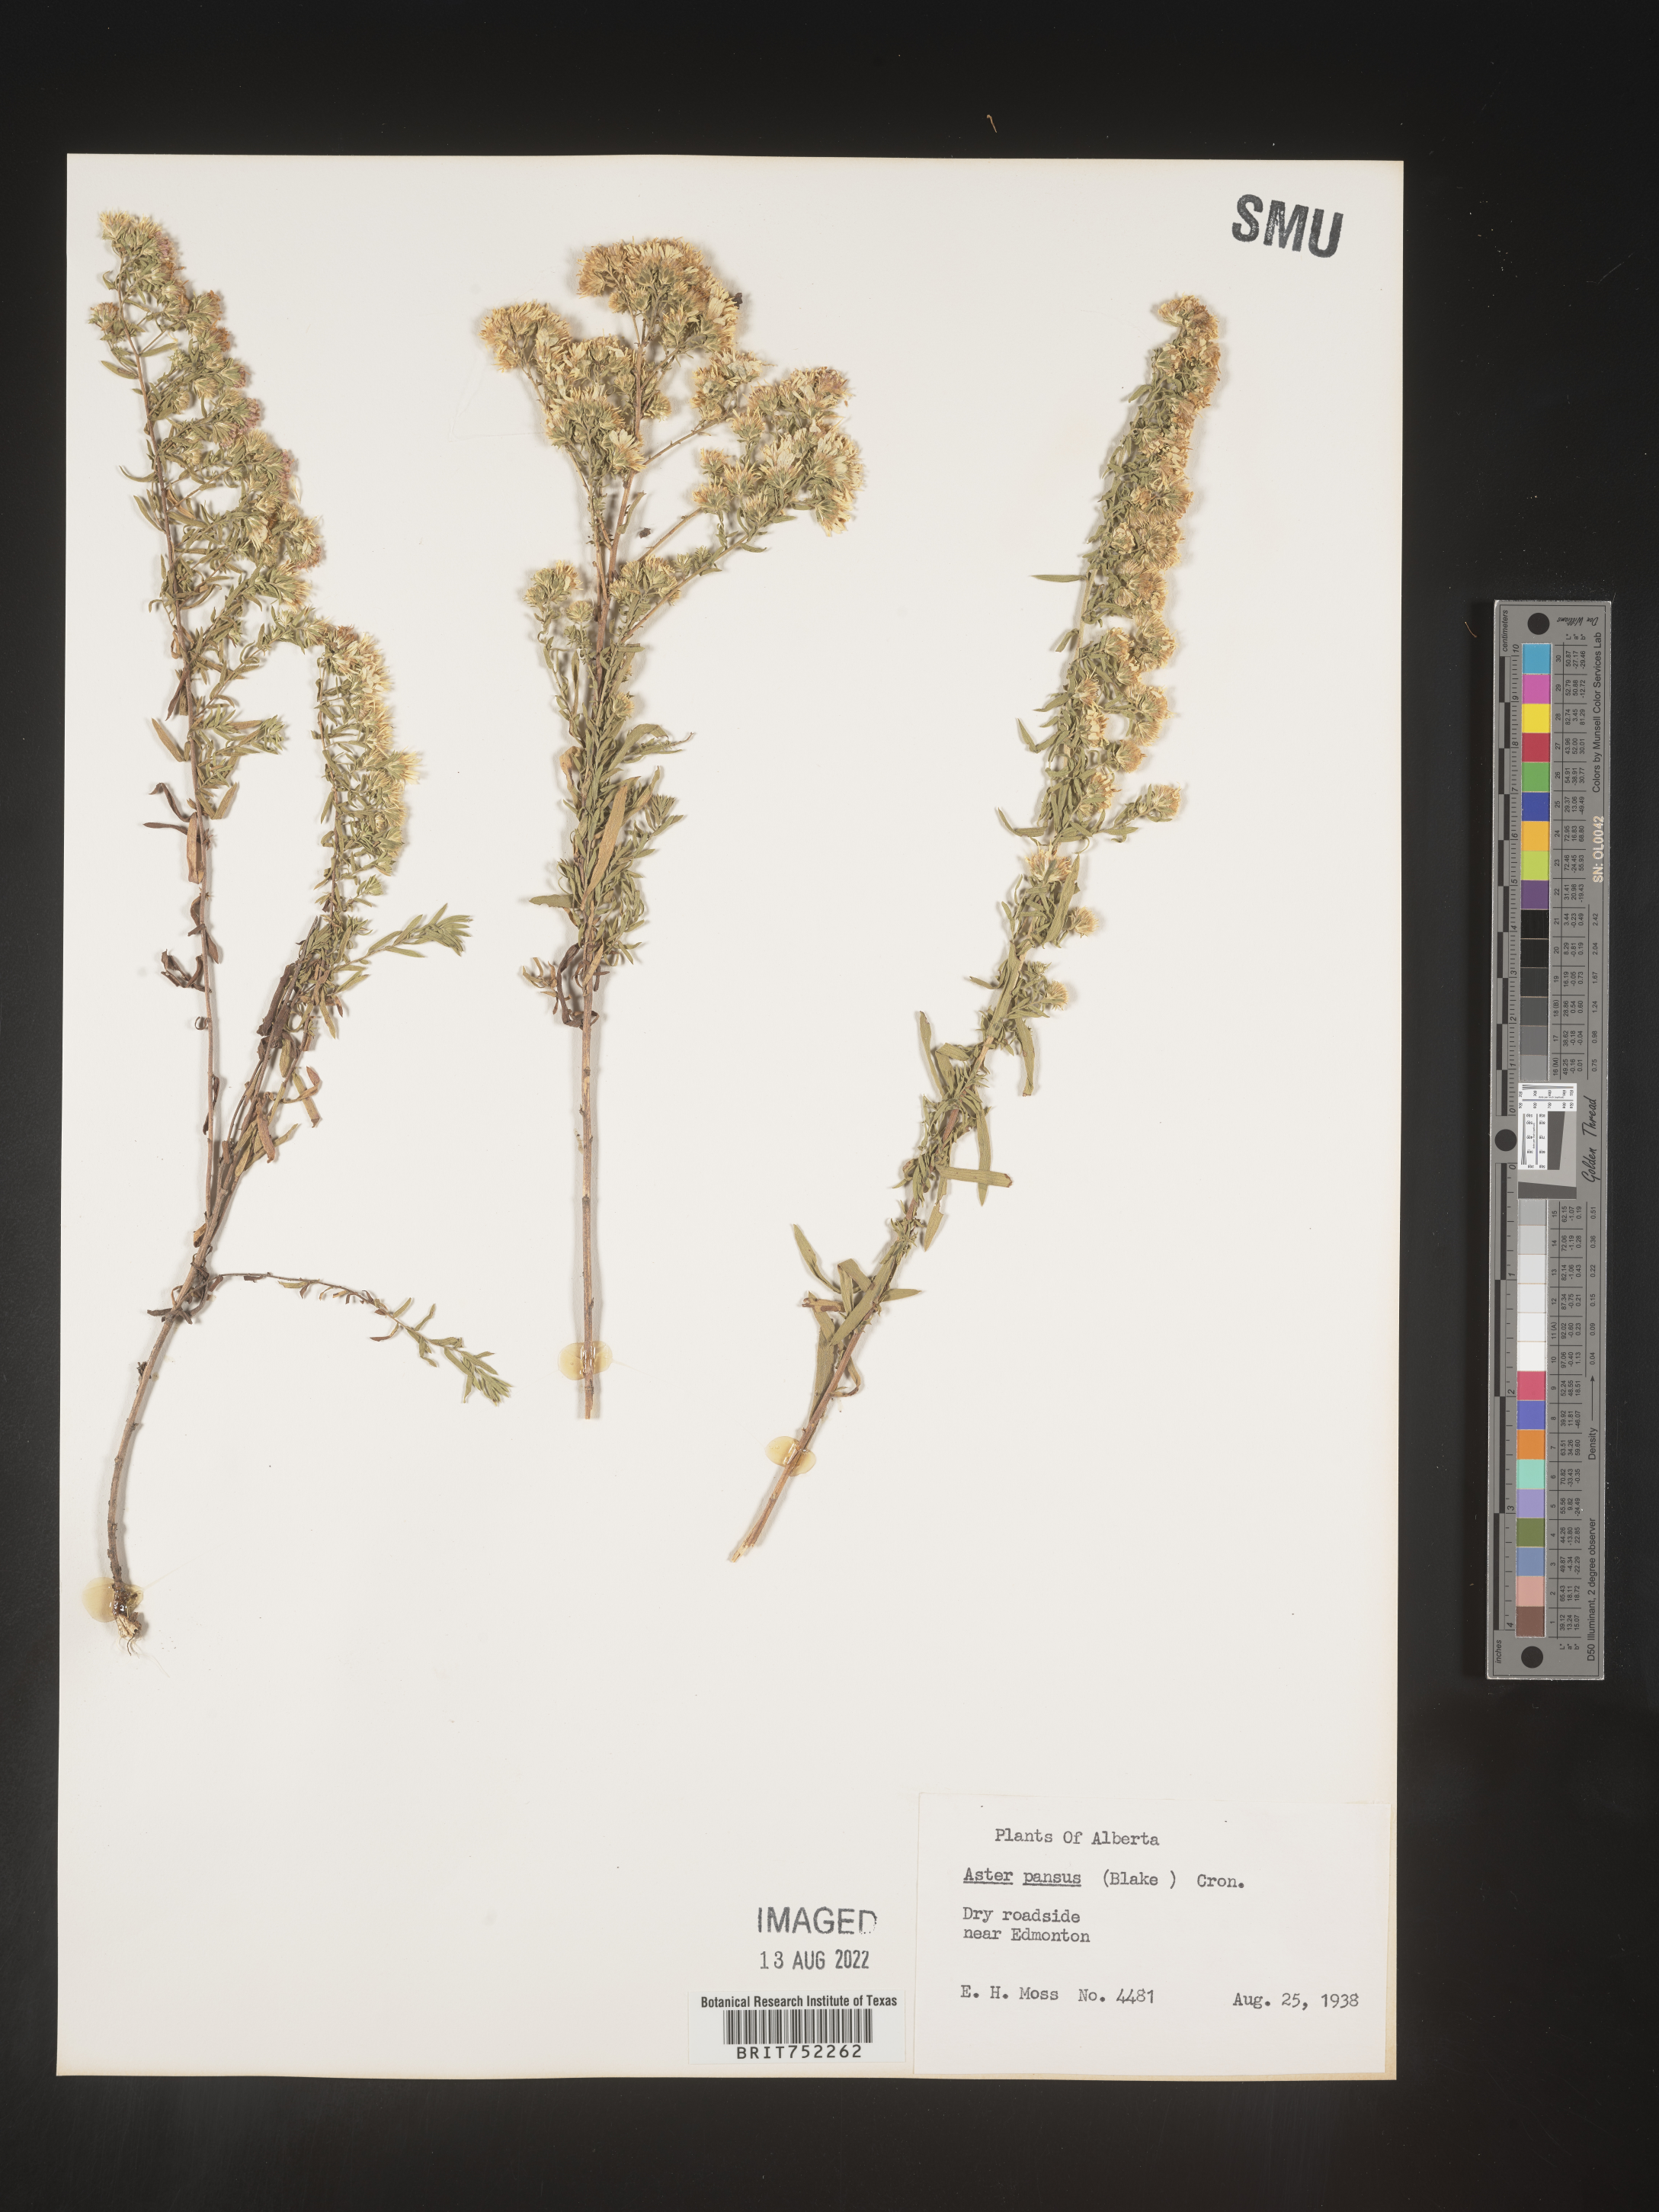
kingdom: Plantae
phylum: Tracheophyta
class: Magnoliopsida
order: Asterales
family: Asteraceae
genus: Symphyotrichum
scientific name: Symphyotrichum ericoides
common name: Heath aster
